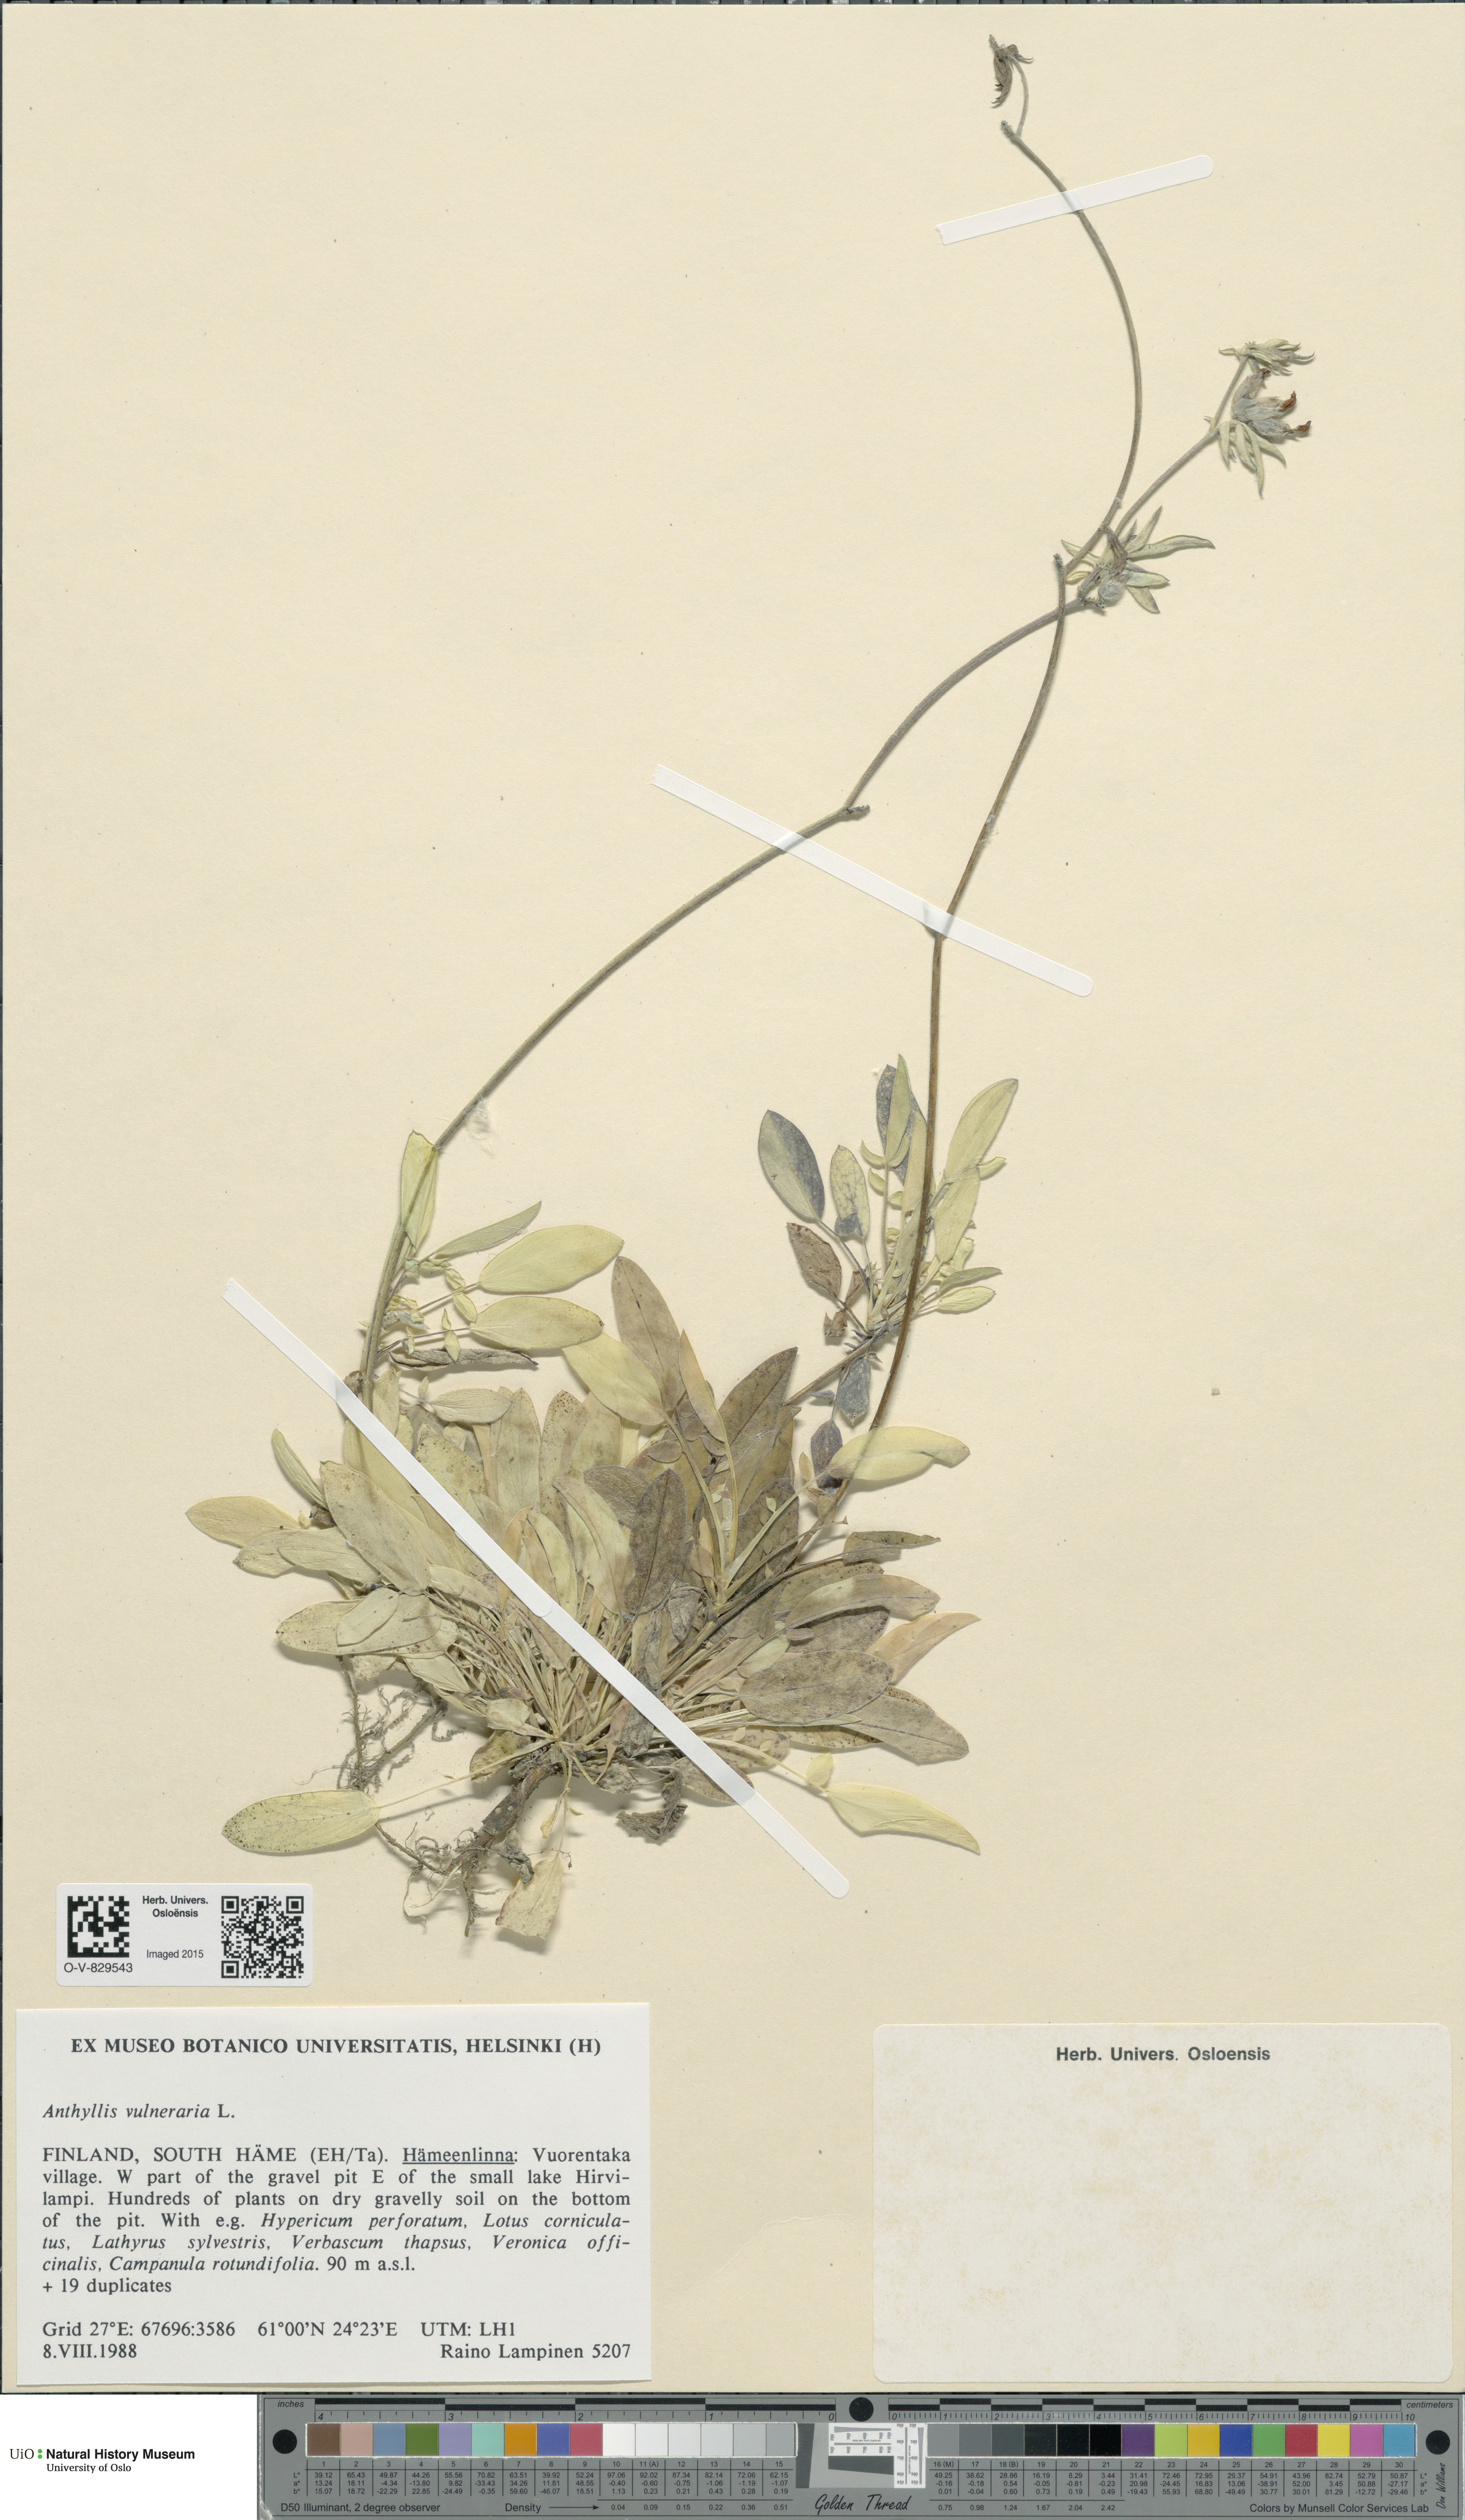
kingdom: Plantae
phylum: Tracheophyta
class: Magnoliopsida
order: Fabales
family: Fabaceae
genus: Anthyllis
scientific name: Anthyllis vulneraria
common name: Kidney vetch
